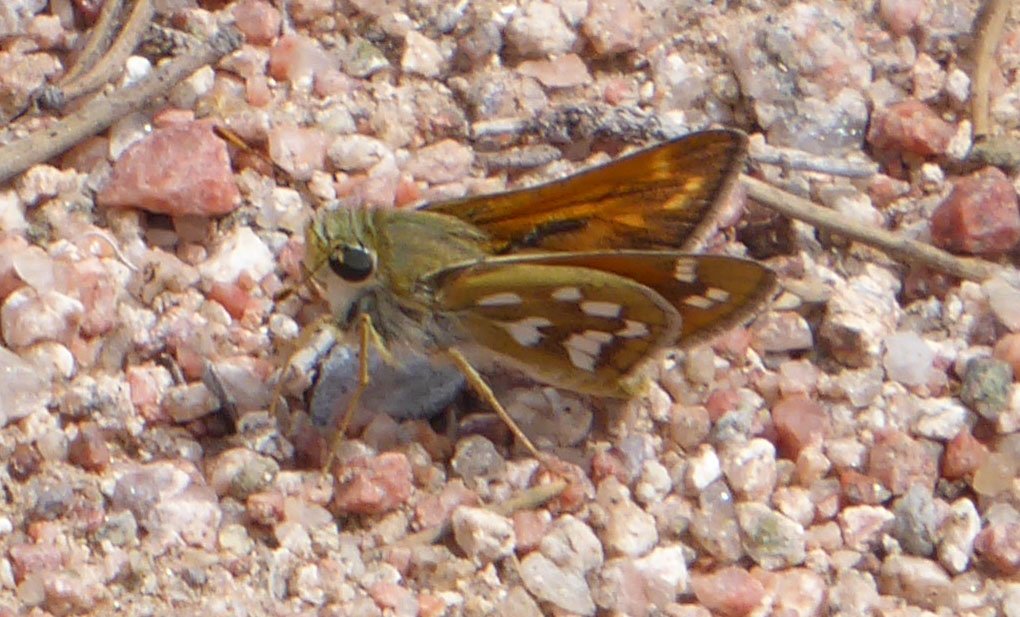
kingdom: Animalia
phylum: Arthropoda
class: Insecta
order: Lepidoptera
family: Hesperiidae
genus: Hesperia
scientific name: Hesperia viridis
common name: Green Skipper
